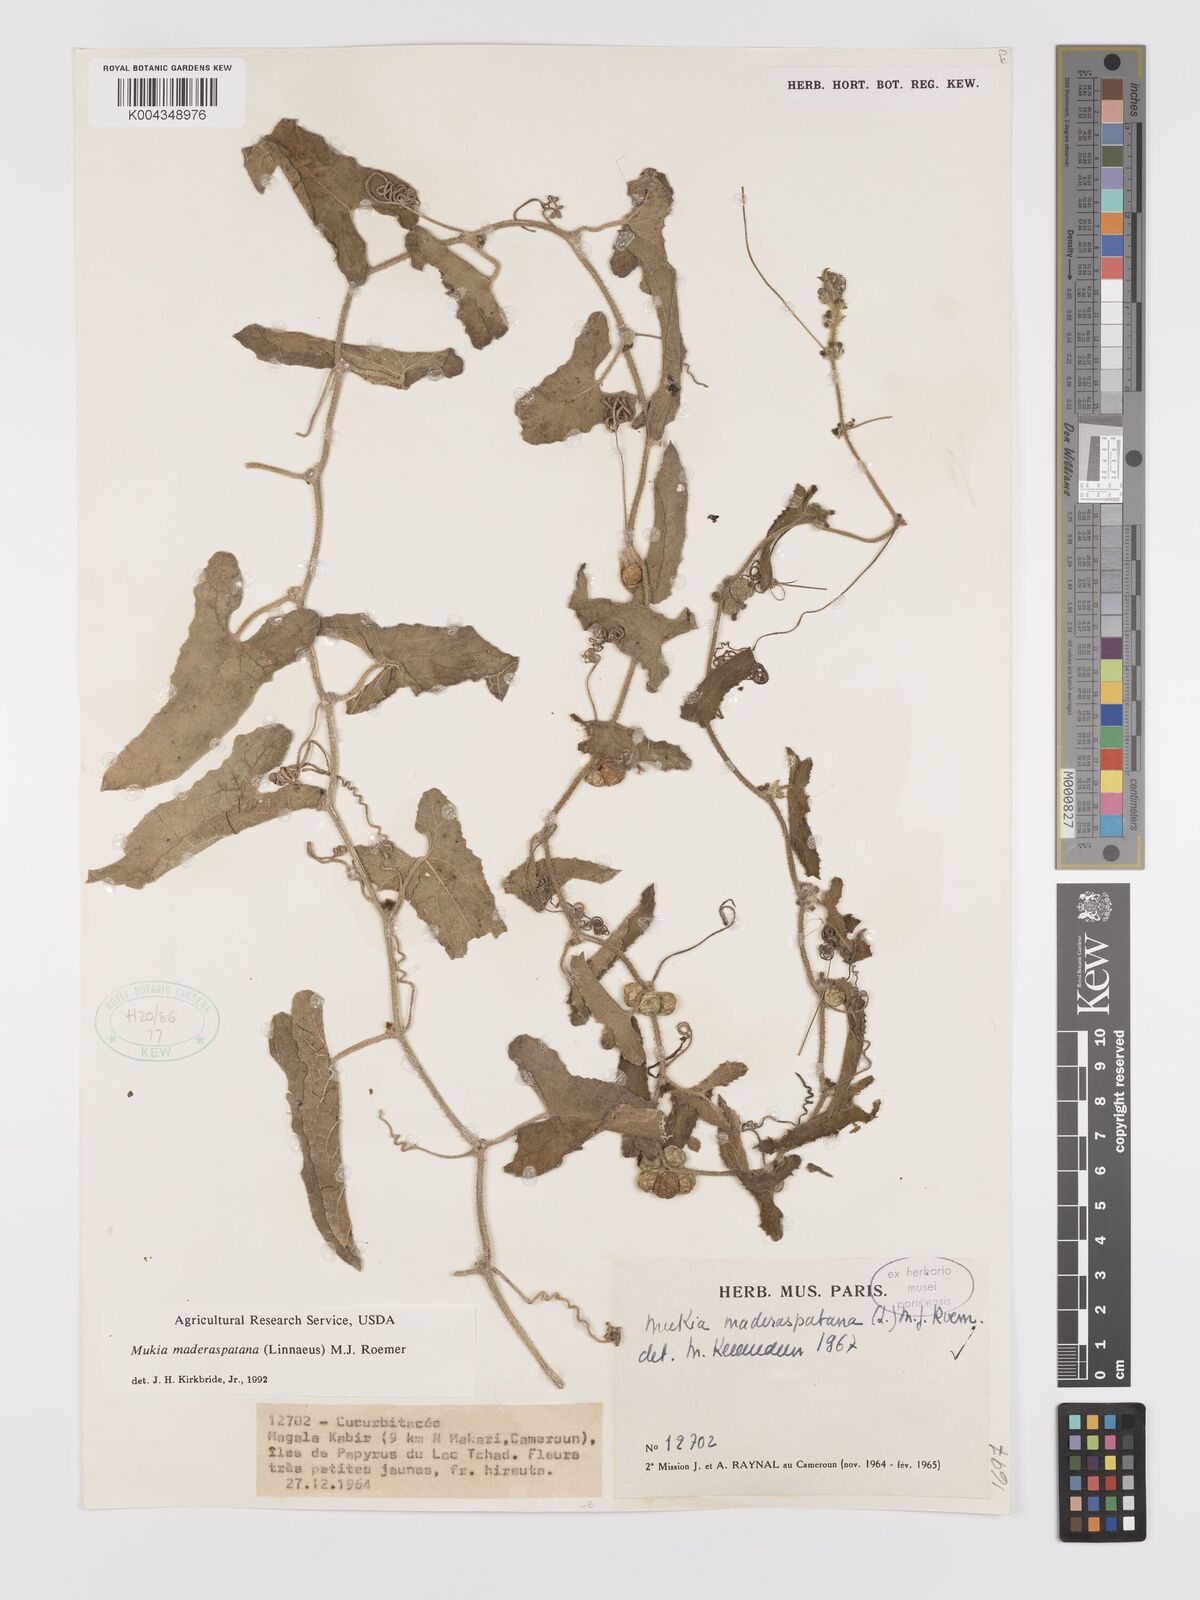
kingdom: Plantae
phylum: Tracheophyta
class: Magnoliopsida
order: Cucurbitales
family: Cucurbitaceae
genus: Cucumis
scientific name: Cucumis maderaspatanus
